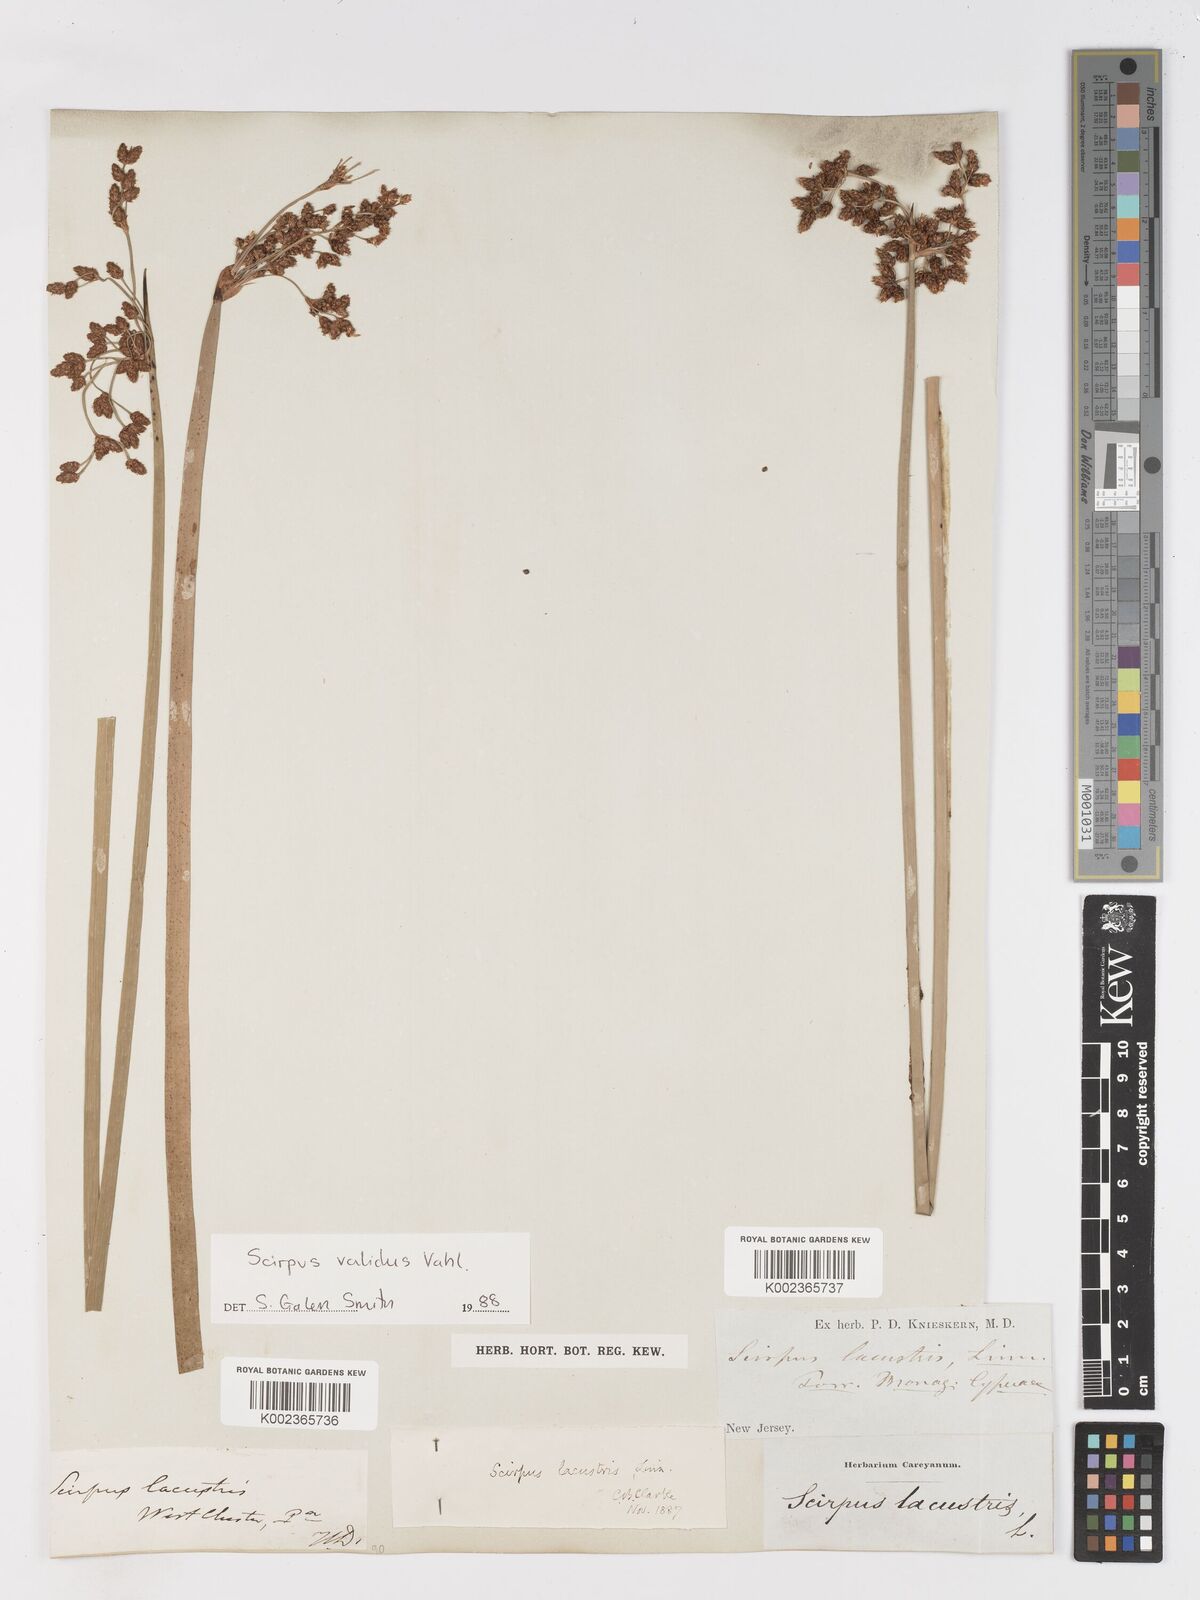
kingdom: Plantae
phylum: Tracheophyta
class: Liliopsida
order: Poales
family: Cyperaceae
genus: Schoenoplectus
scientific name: Schoenoplectus lacustris
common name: Common club-rush
